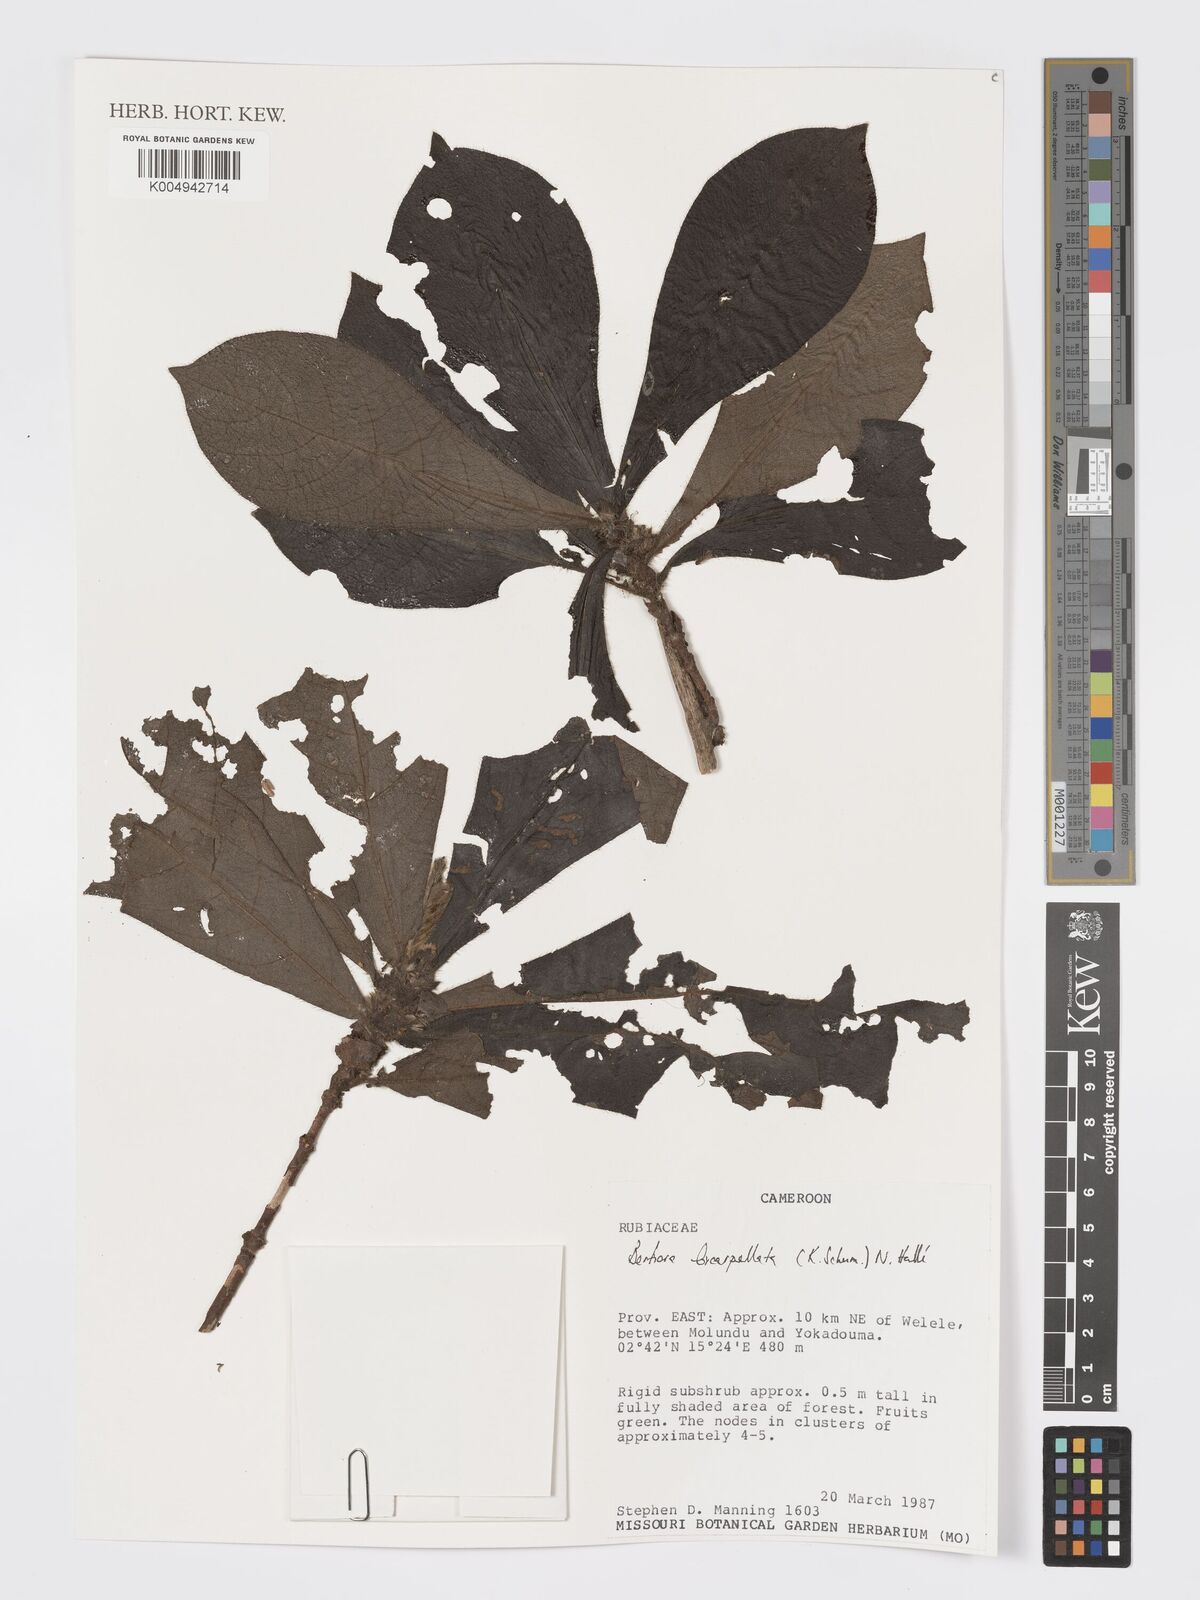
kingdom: Plantae
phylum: Tracheophyta
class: Magnoliopsida
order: Gentianales
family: Rubiaceae
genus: Bertiera
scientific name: Bertiera bicarpellata
